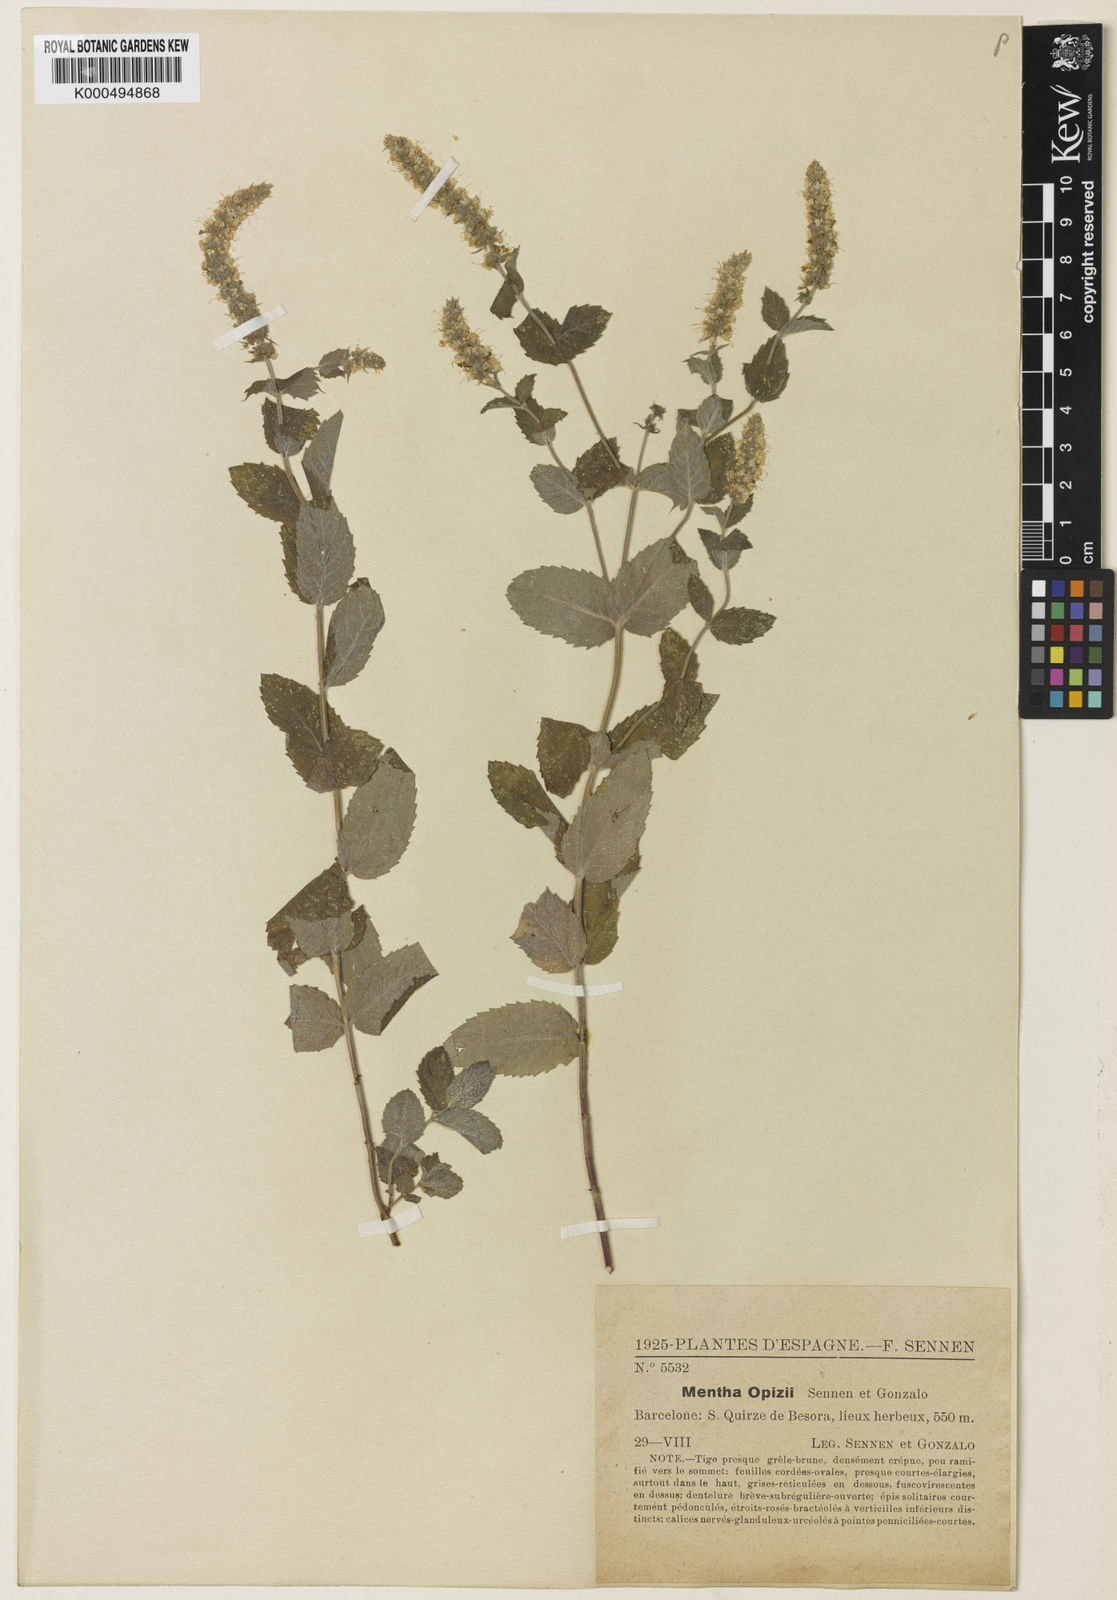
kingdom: Plantae
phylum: Tracheophyta
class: Magnoliopsida
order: Lamiales
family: Lamiaceae
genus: Mentha
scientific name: Mentha rotundifolia
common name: Bigleaf mint
